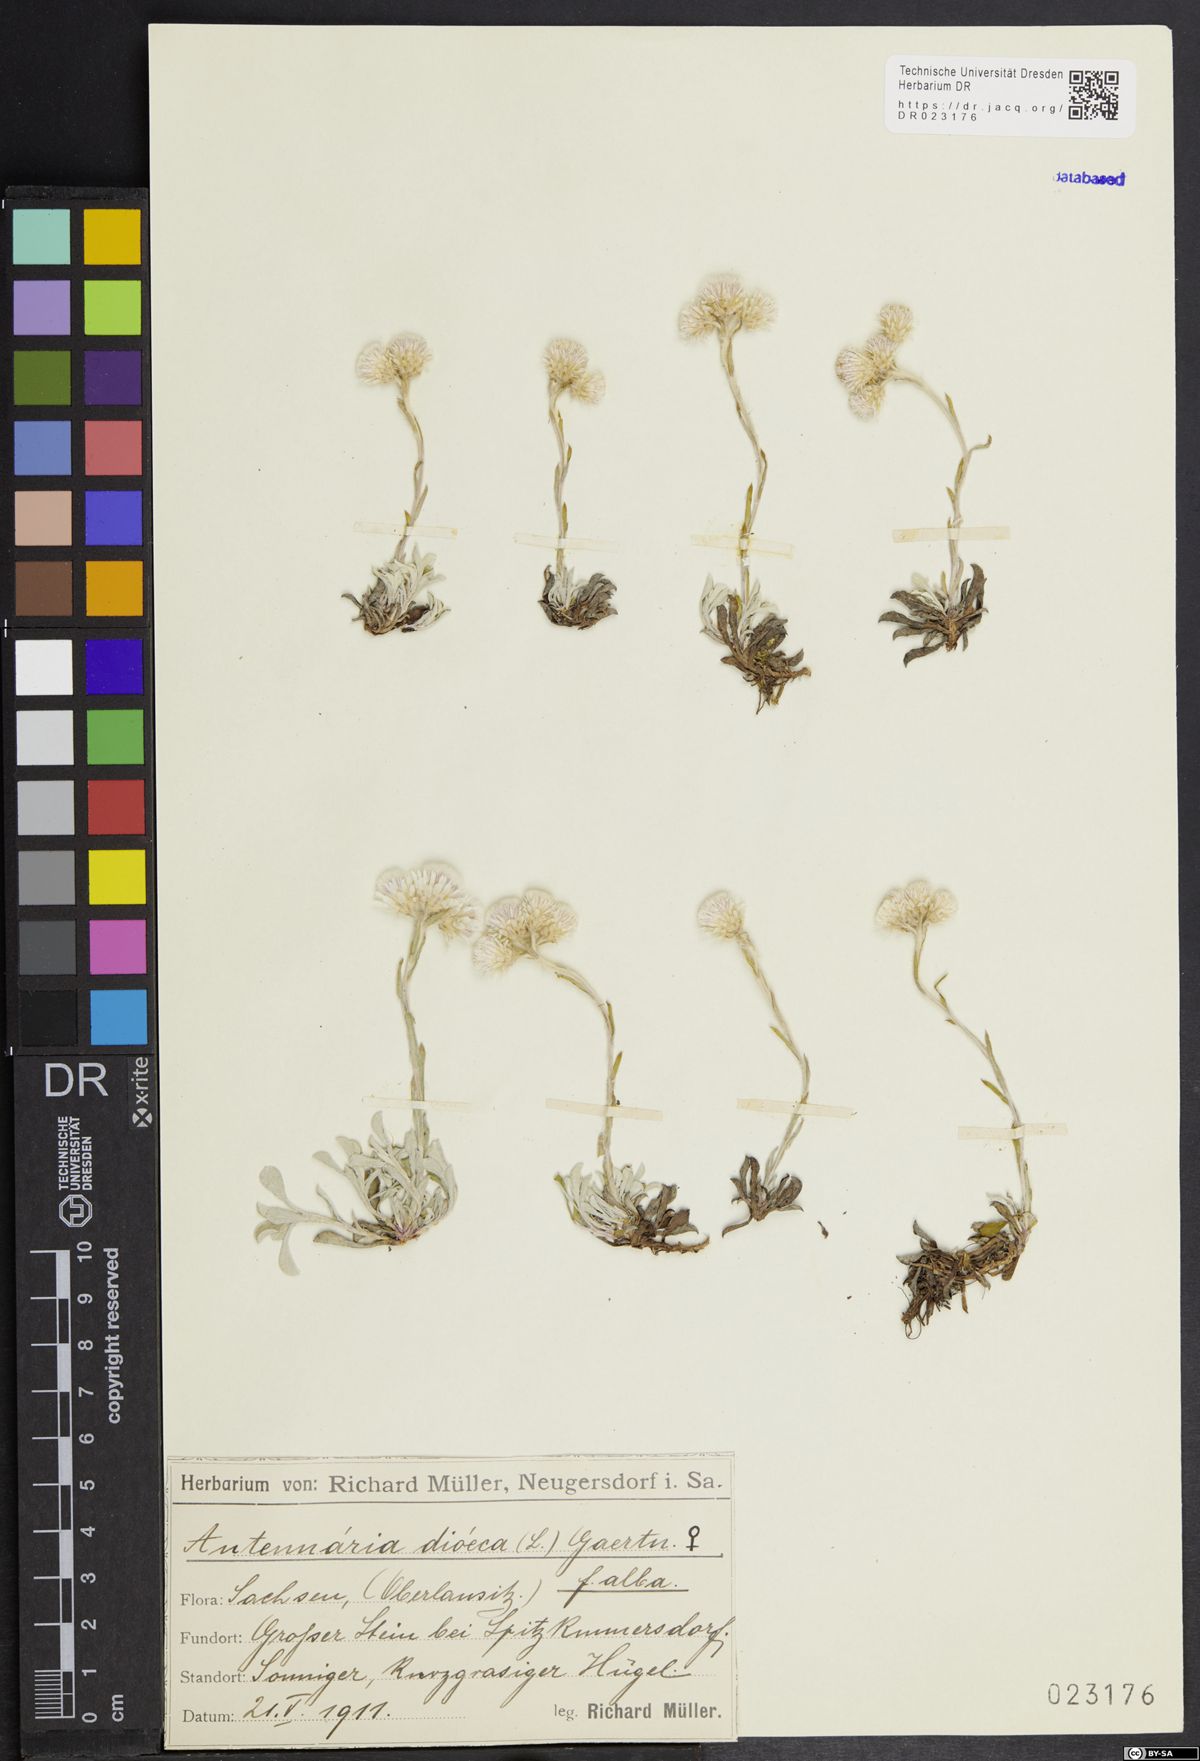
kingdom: Plantae
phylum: Tracheophyta
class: Magnoliopsida
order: Asterales
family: Asteraceae
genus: Antennaria
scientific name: Antennaria dioica
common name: Mountain everlasting
